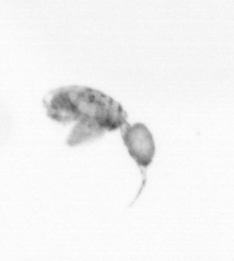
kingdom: Animalia
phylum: Arthropoda
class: Copepoda
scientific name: Copepoda
